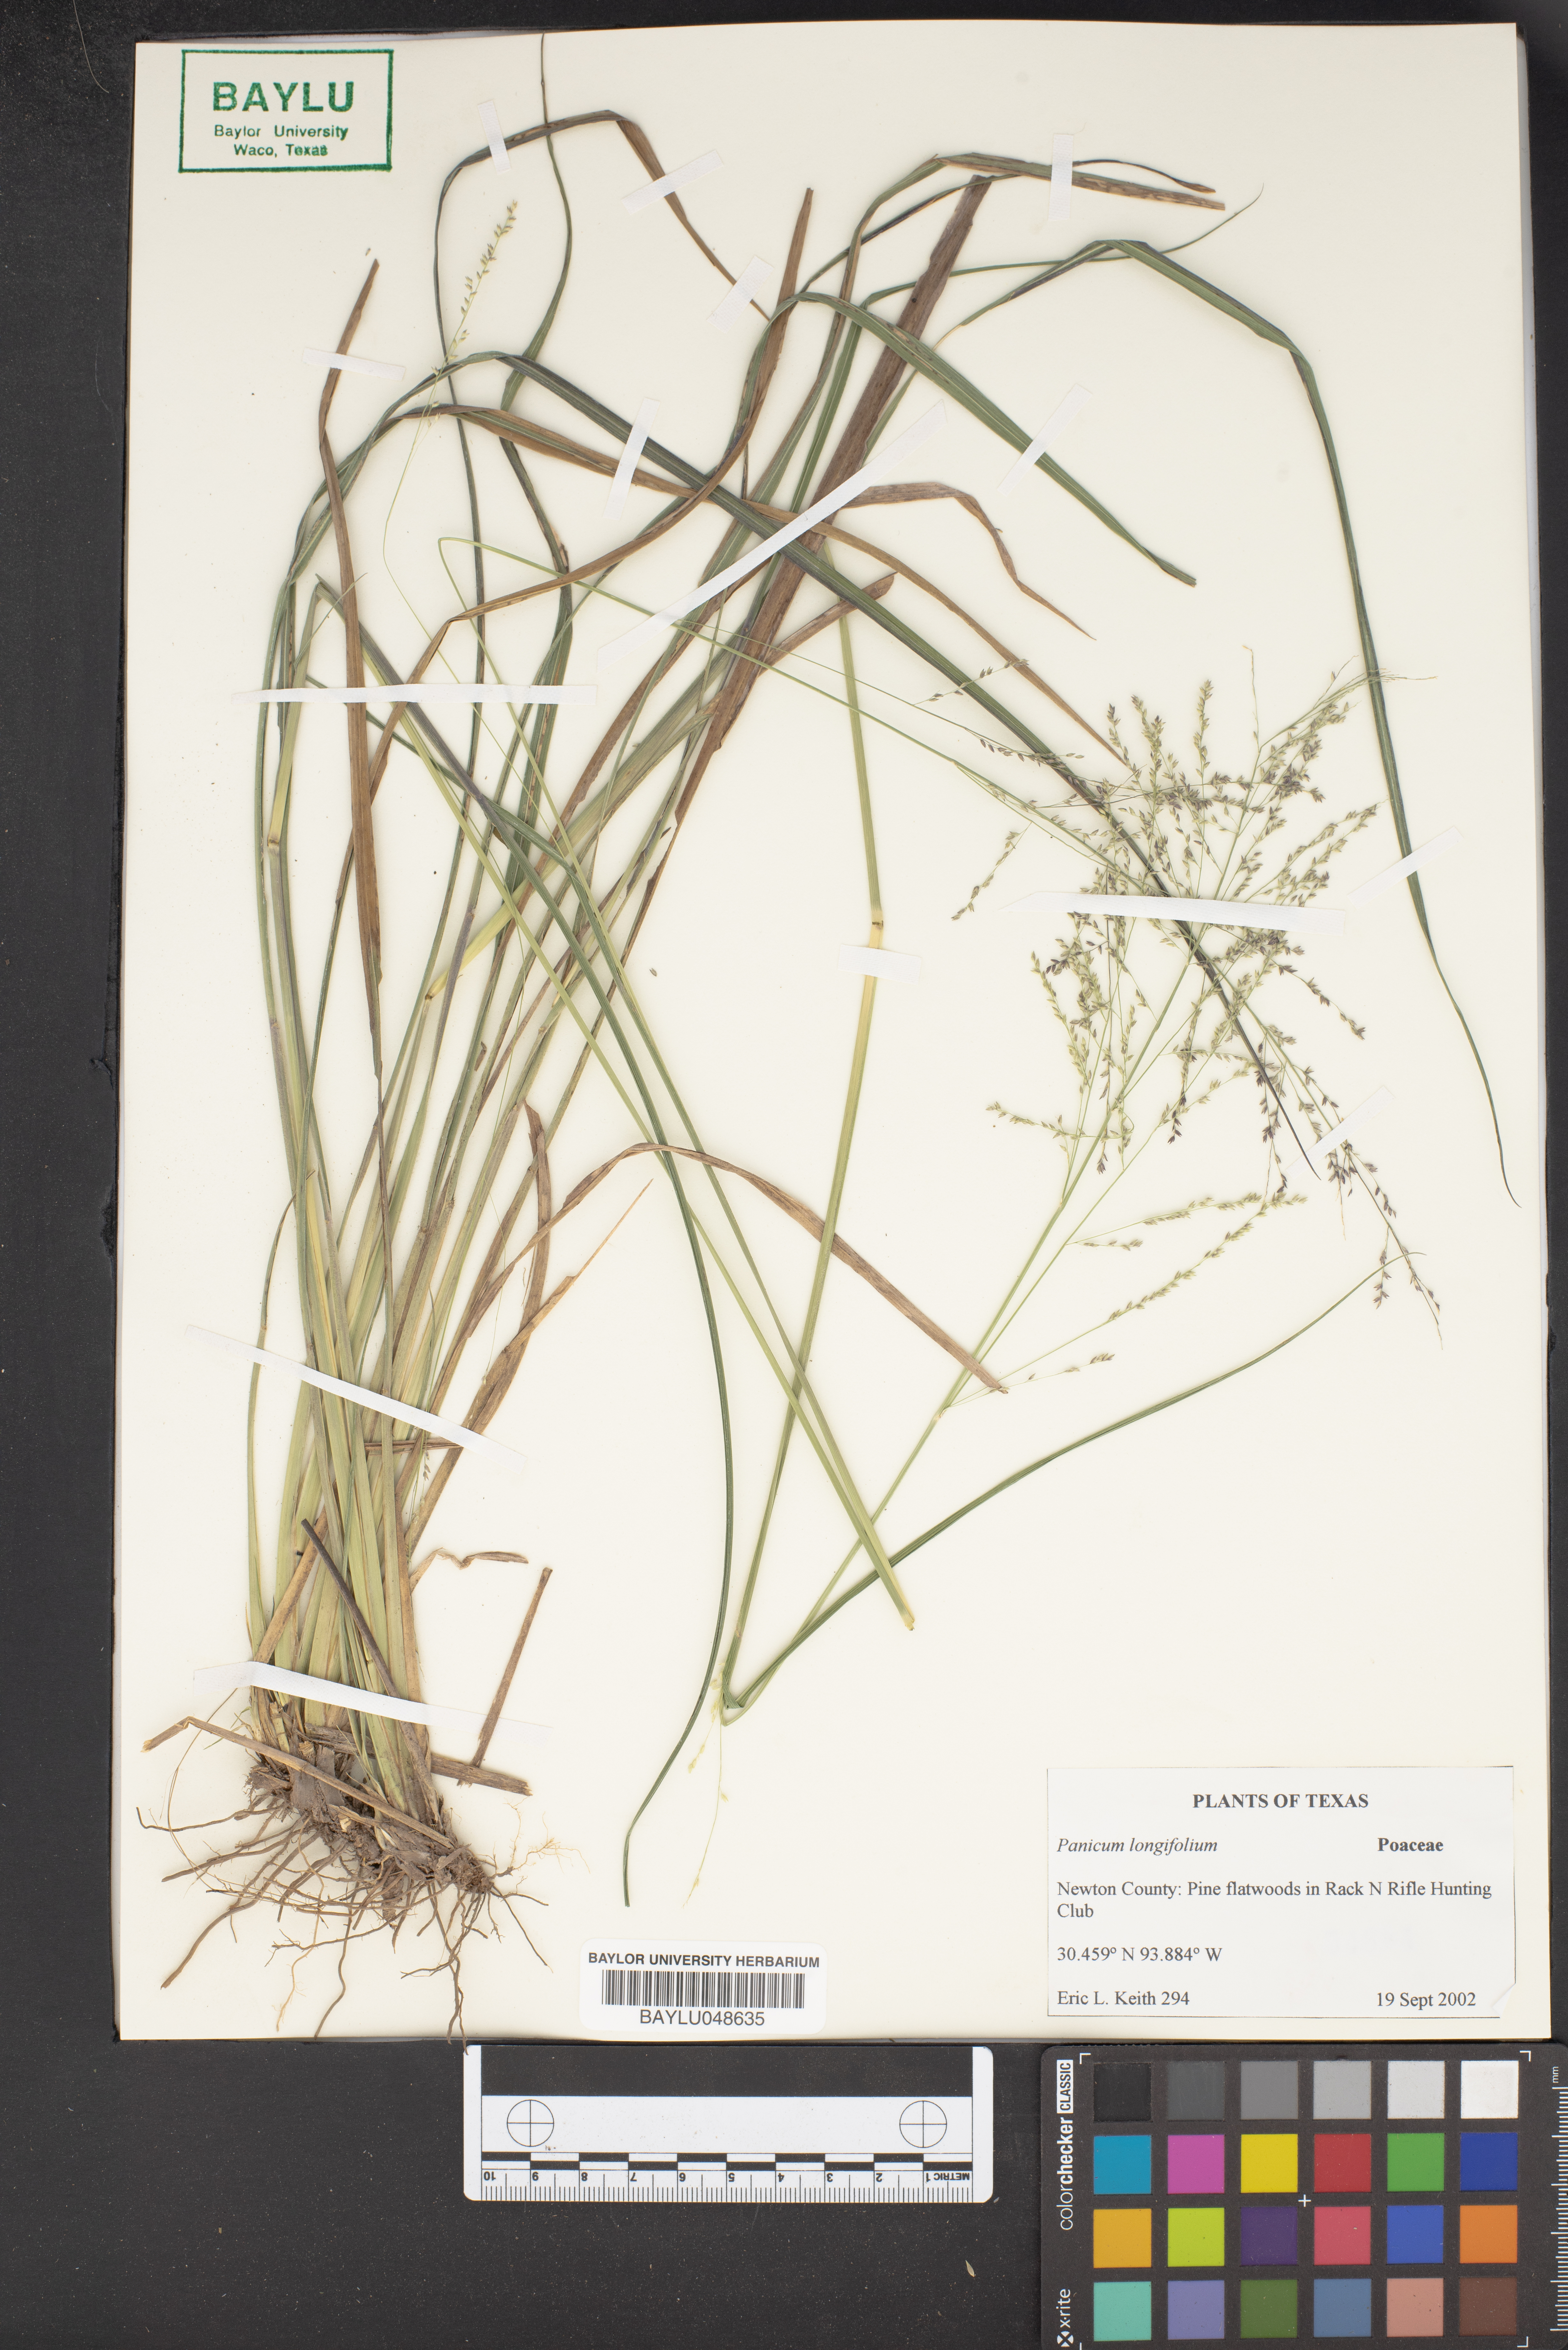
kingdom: Plantae
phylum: Tracheophyta
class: Liliopsida
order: Poales
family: Poaceae
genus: Coleataenia
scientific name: Coleataenia longifolia
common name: Long-leaved panicgrass
